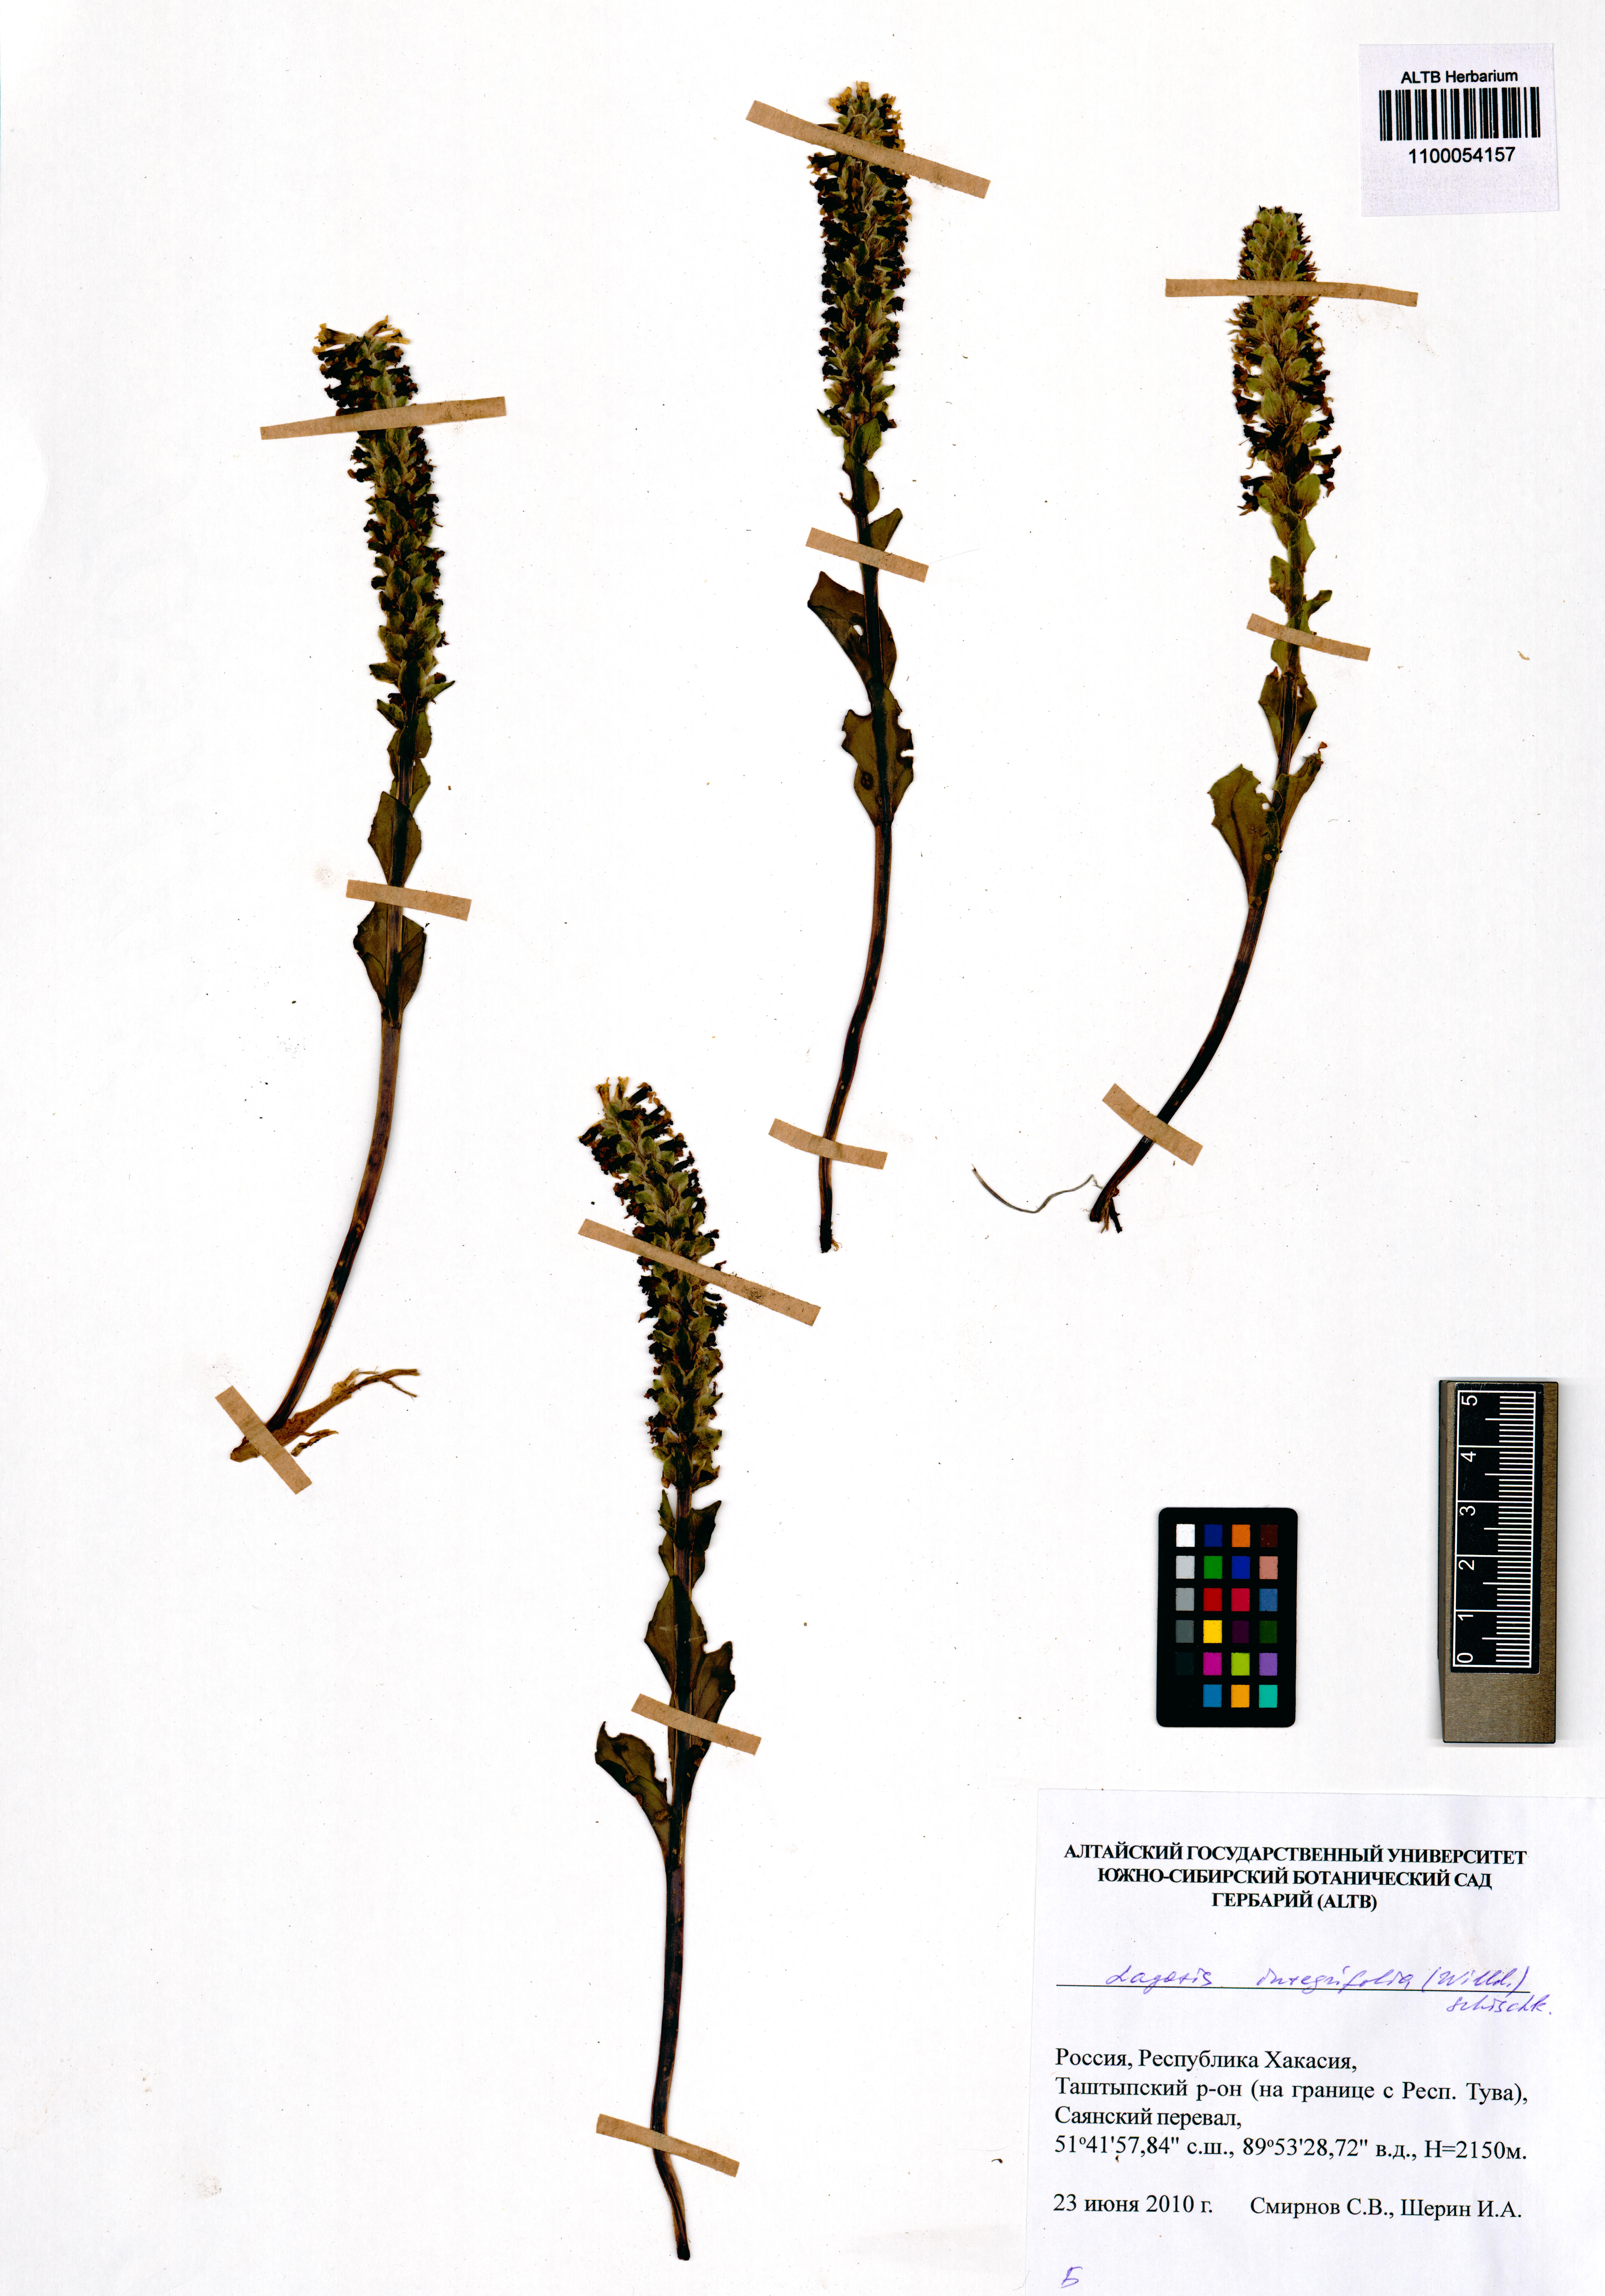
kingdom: Plantae
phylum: Tracheophyta
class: Magnoliopsida
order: Lamiales
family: Plantaginaceae
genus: Lagotis
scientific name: Lagotis integrifolia
